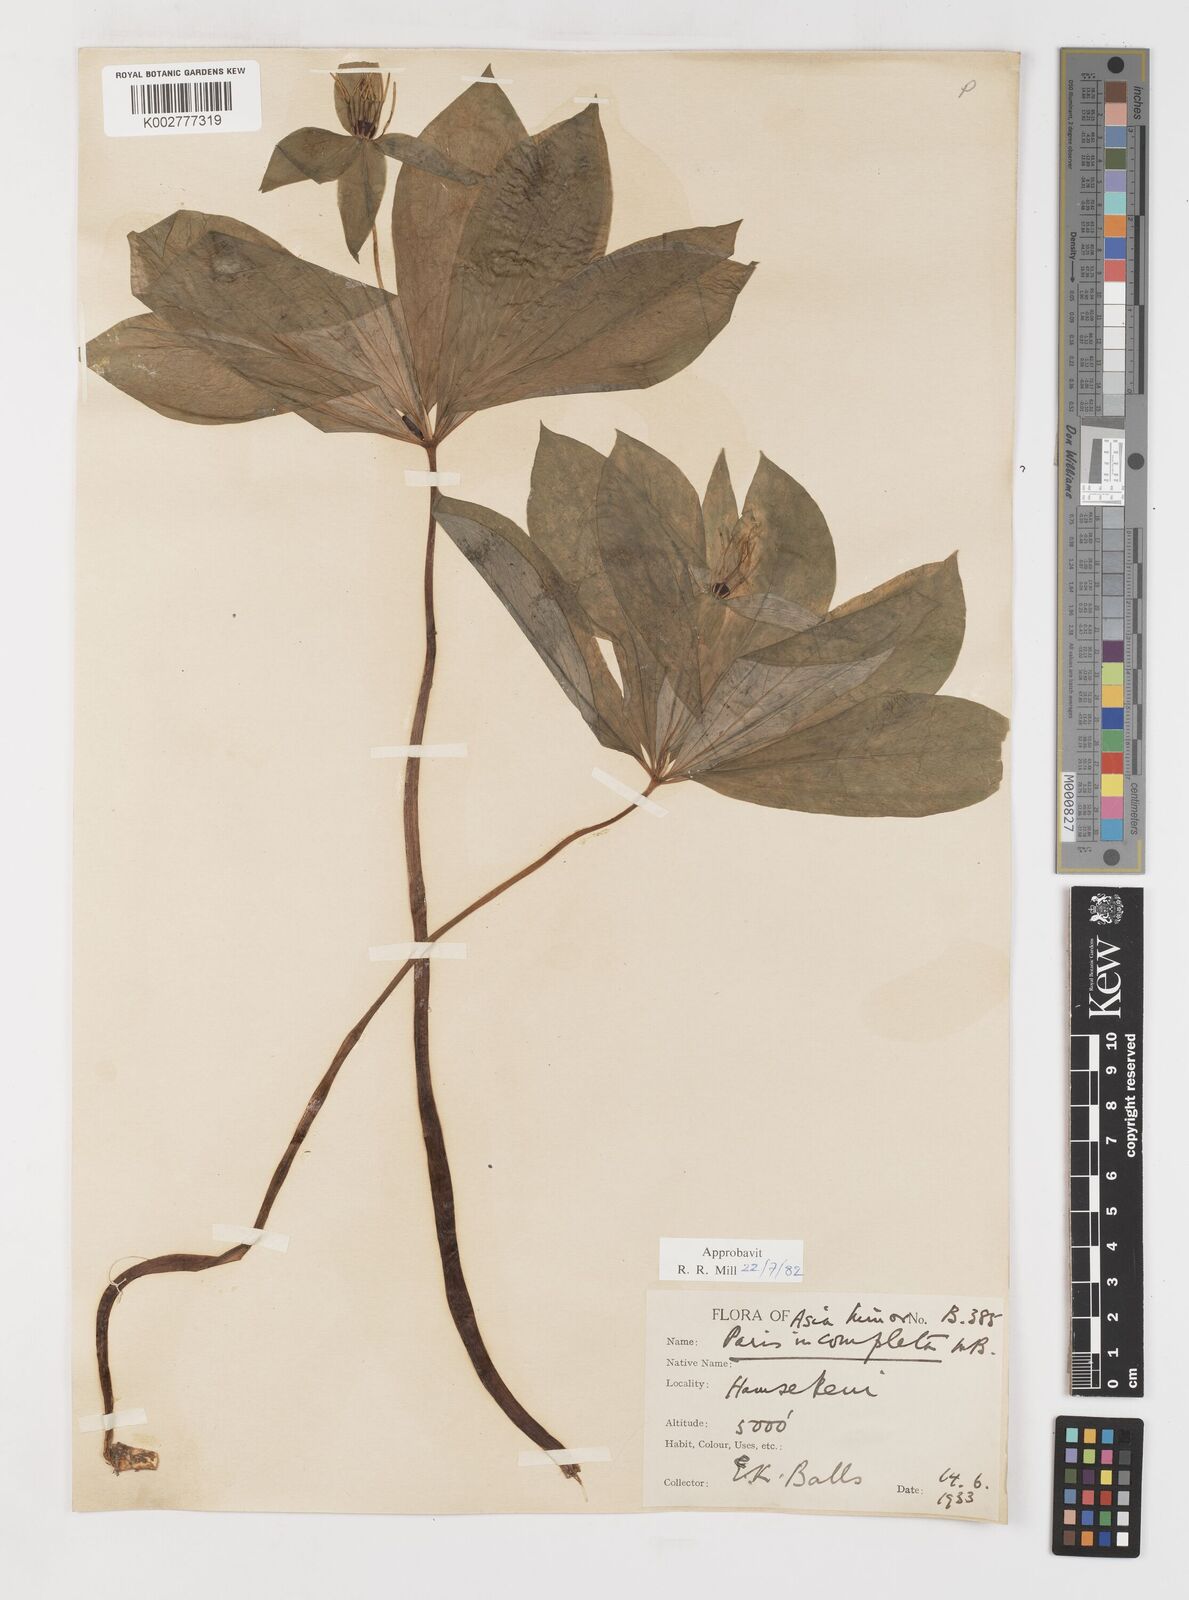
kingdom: Plantae
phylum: Tracheophyta
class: Liliopsida
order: Liliales
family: Melanthiaceae
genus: Paris
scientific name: Paris quadrifolia
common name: Herb-paris
